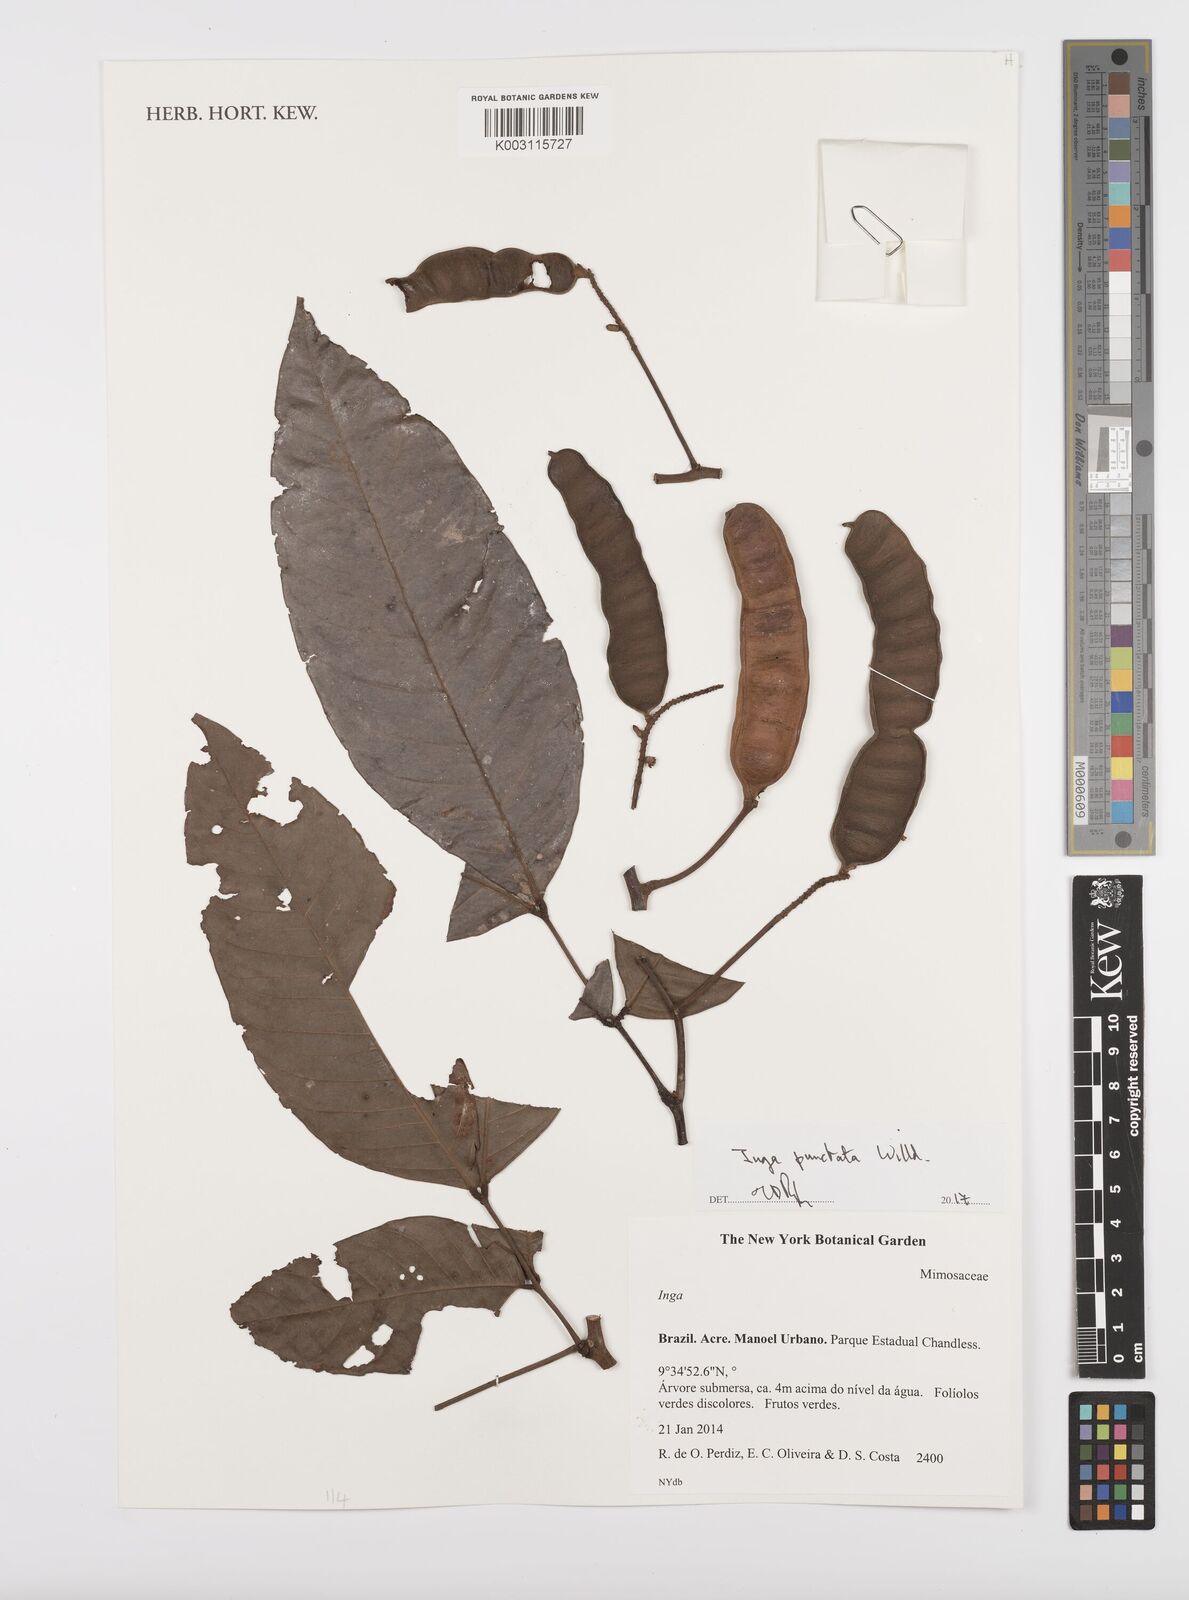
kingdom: Plantae
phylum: Tracheophyta
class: Magnoliopsida
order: Fabales
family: Fabaceae
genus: Inga
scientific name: Inga punctata
